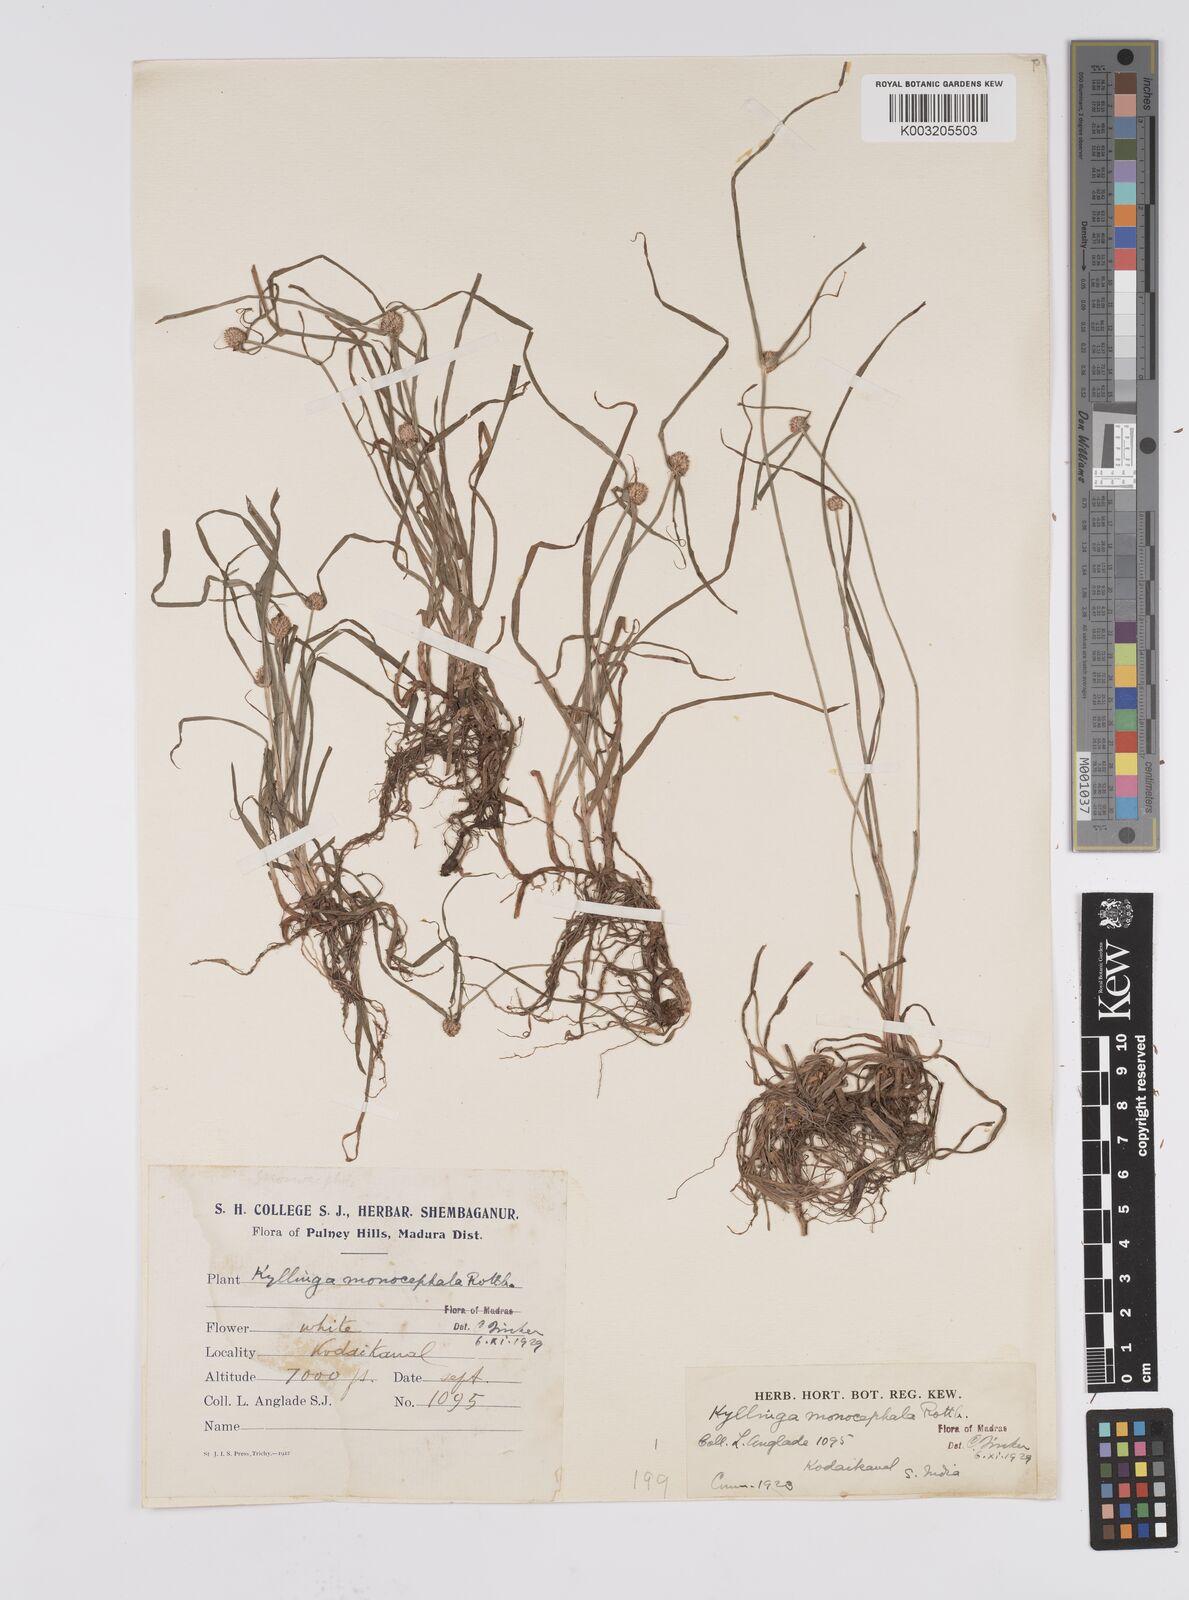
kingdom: Plantae
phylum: Tracheophyta
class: Liliopsida
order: Poales
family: Cyperaceae
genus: Cyperus
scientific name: Cyperus nemoralis
